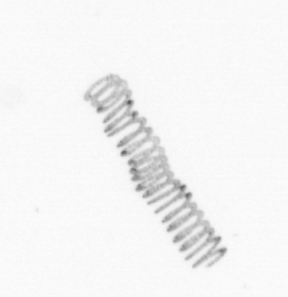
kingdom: Chromista
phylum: Ochrophyta
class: Bacillariophyceae
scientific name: Bacillariophyceae
